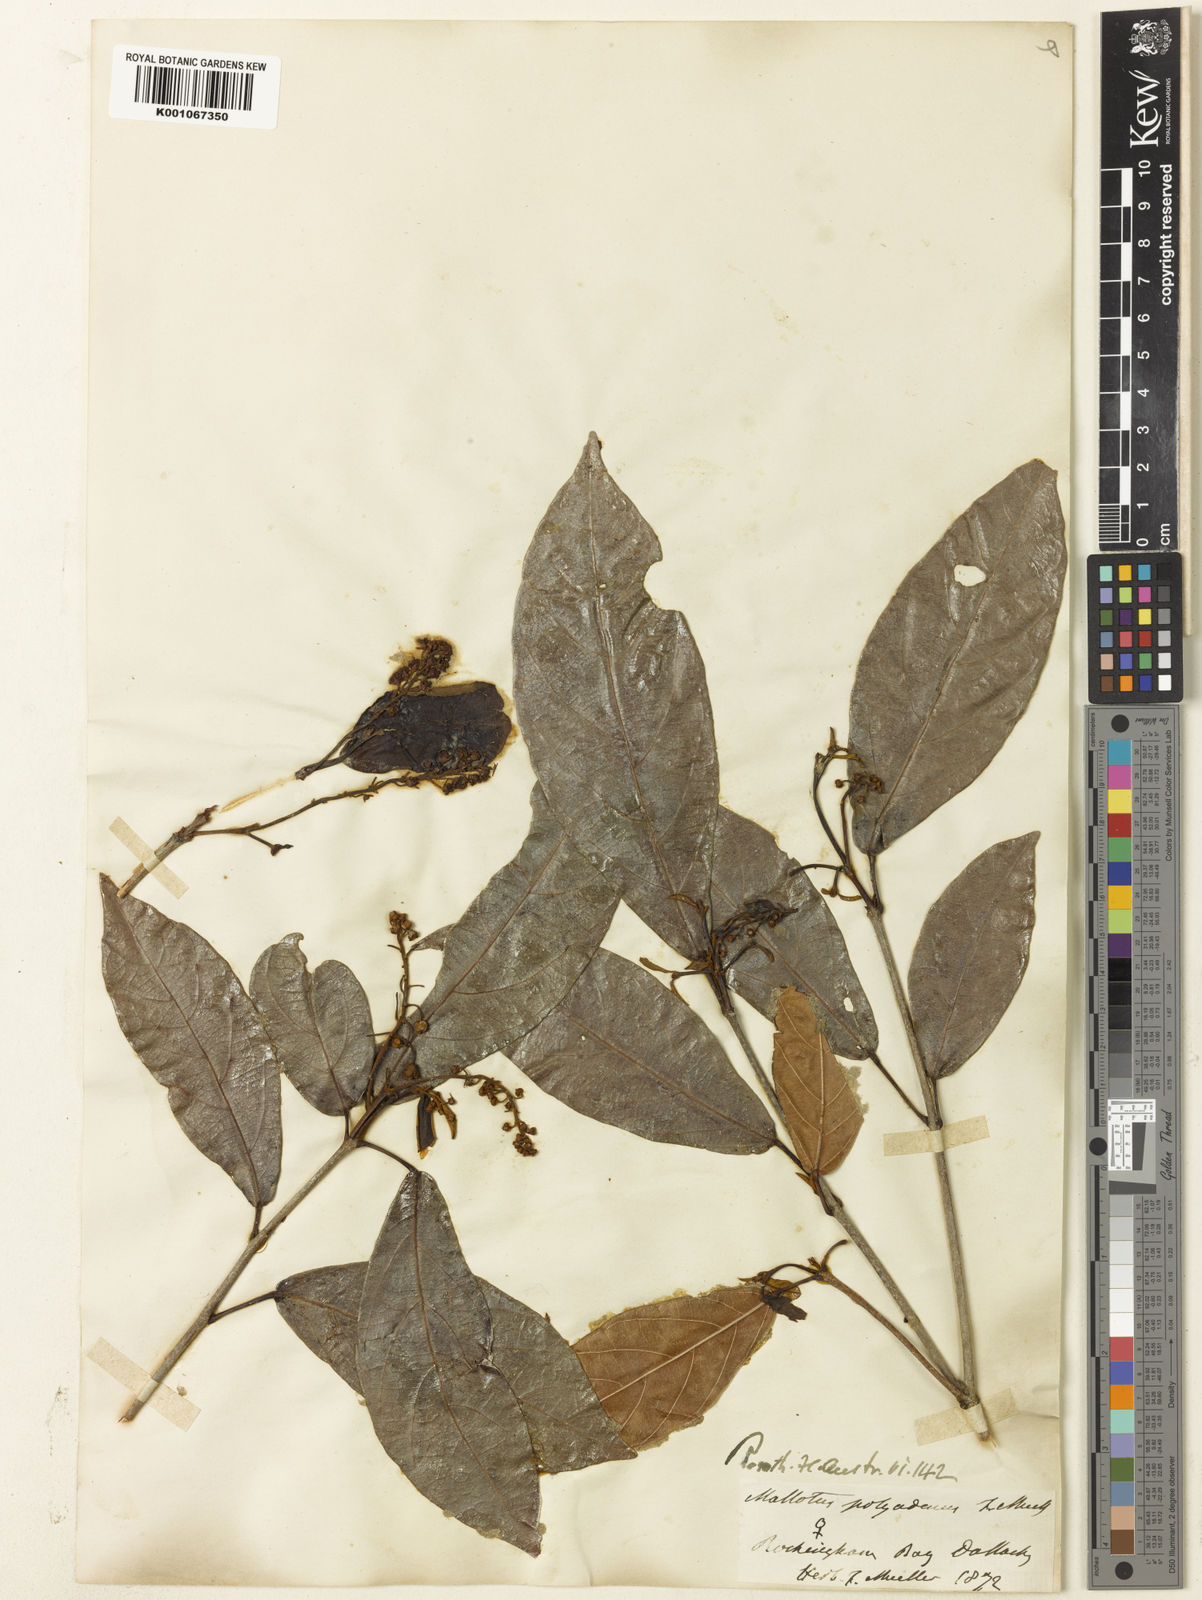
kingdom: Plantae
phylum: Tracheophyta
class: Magnoliopsida
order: Malpighiales
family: Euphorbiaceae
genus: Mallotus
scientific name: Mallotus polyadenos
